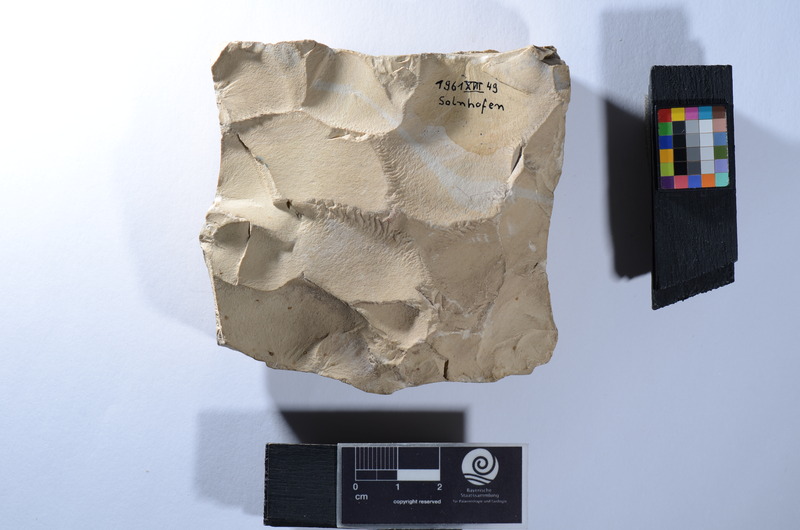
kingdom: Animalia
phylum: Chordata
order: Amiiformes
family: Ionoscopidae
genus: Ionoscopus
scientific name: Ionoscopus
